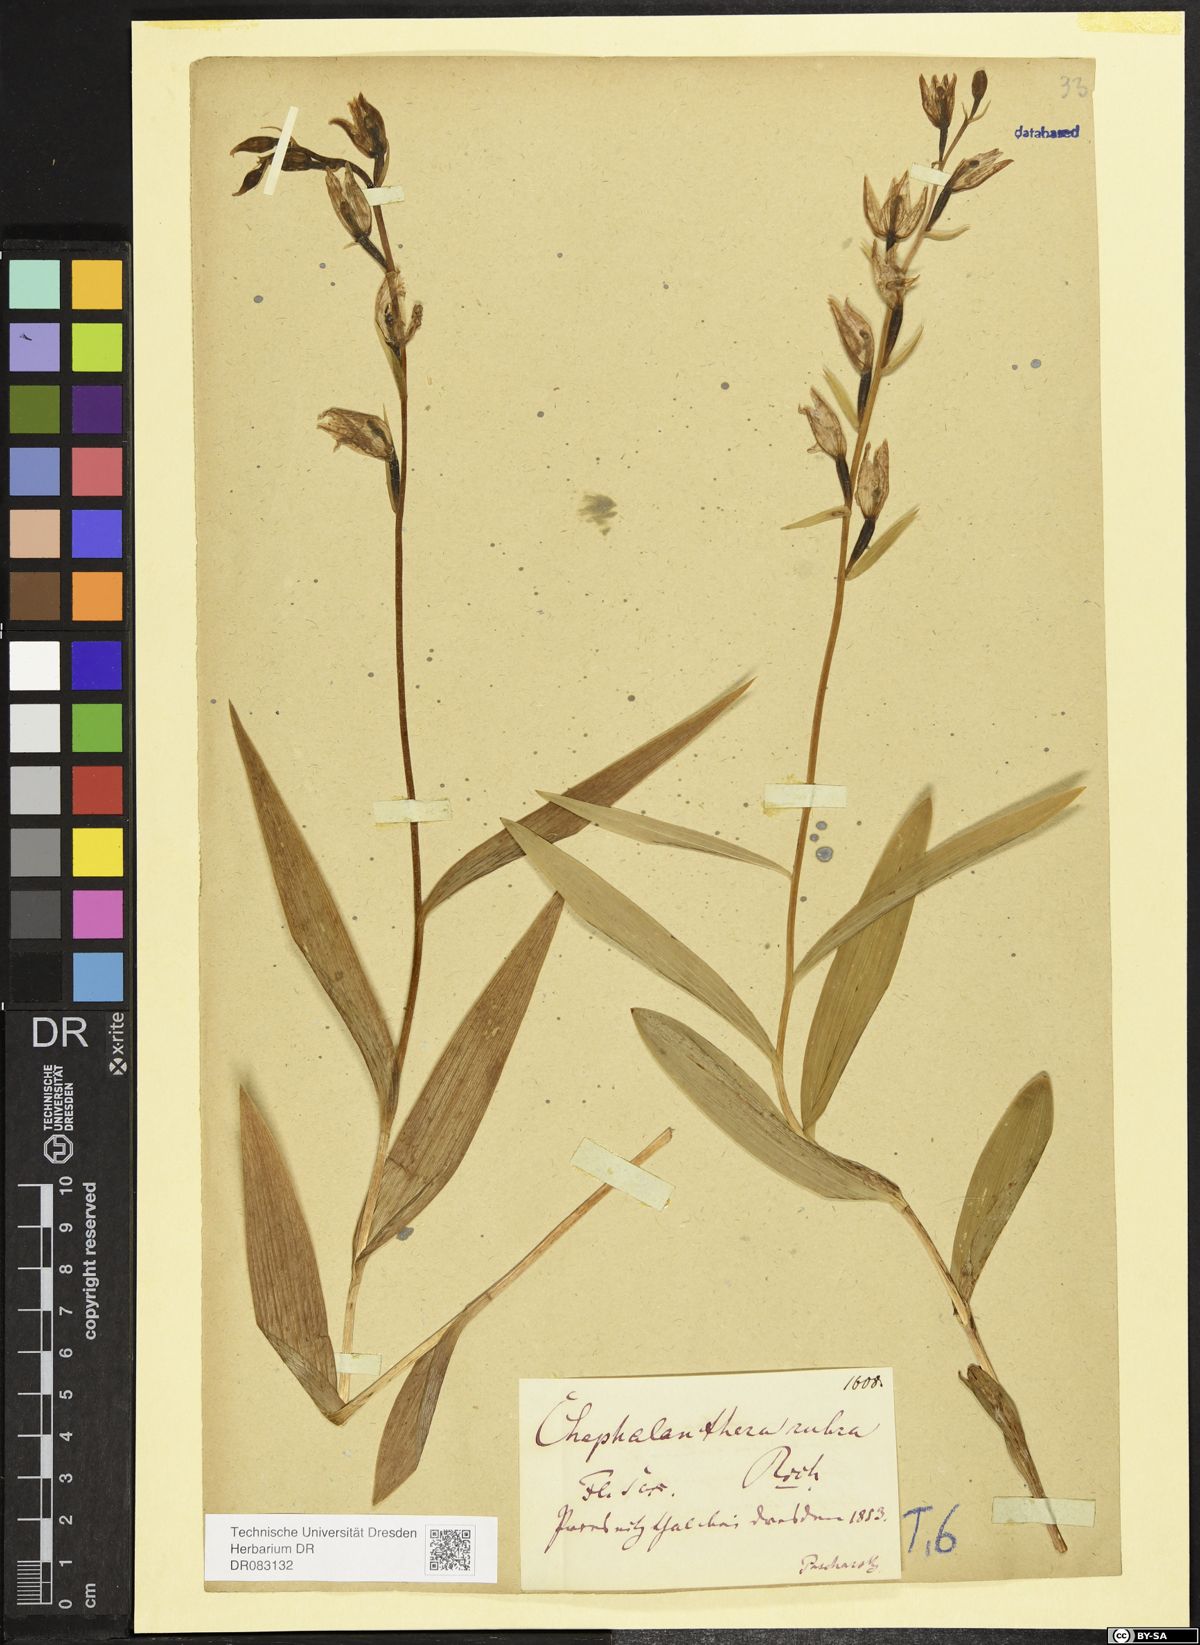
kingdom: Plantae
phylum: Tracheophyta
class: Liliopsida
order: Asparagales
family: Orchidaceae
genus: Cephalanthera
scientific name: Cephalanthera rubra
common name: Red helleborine
